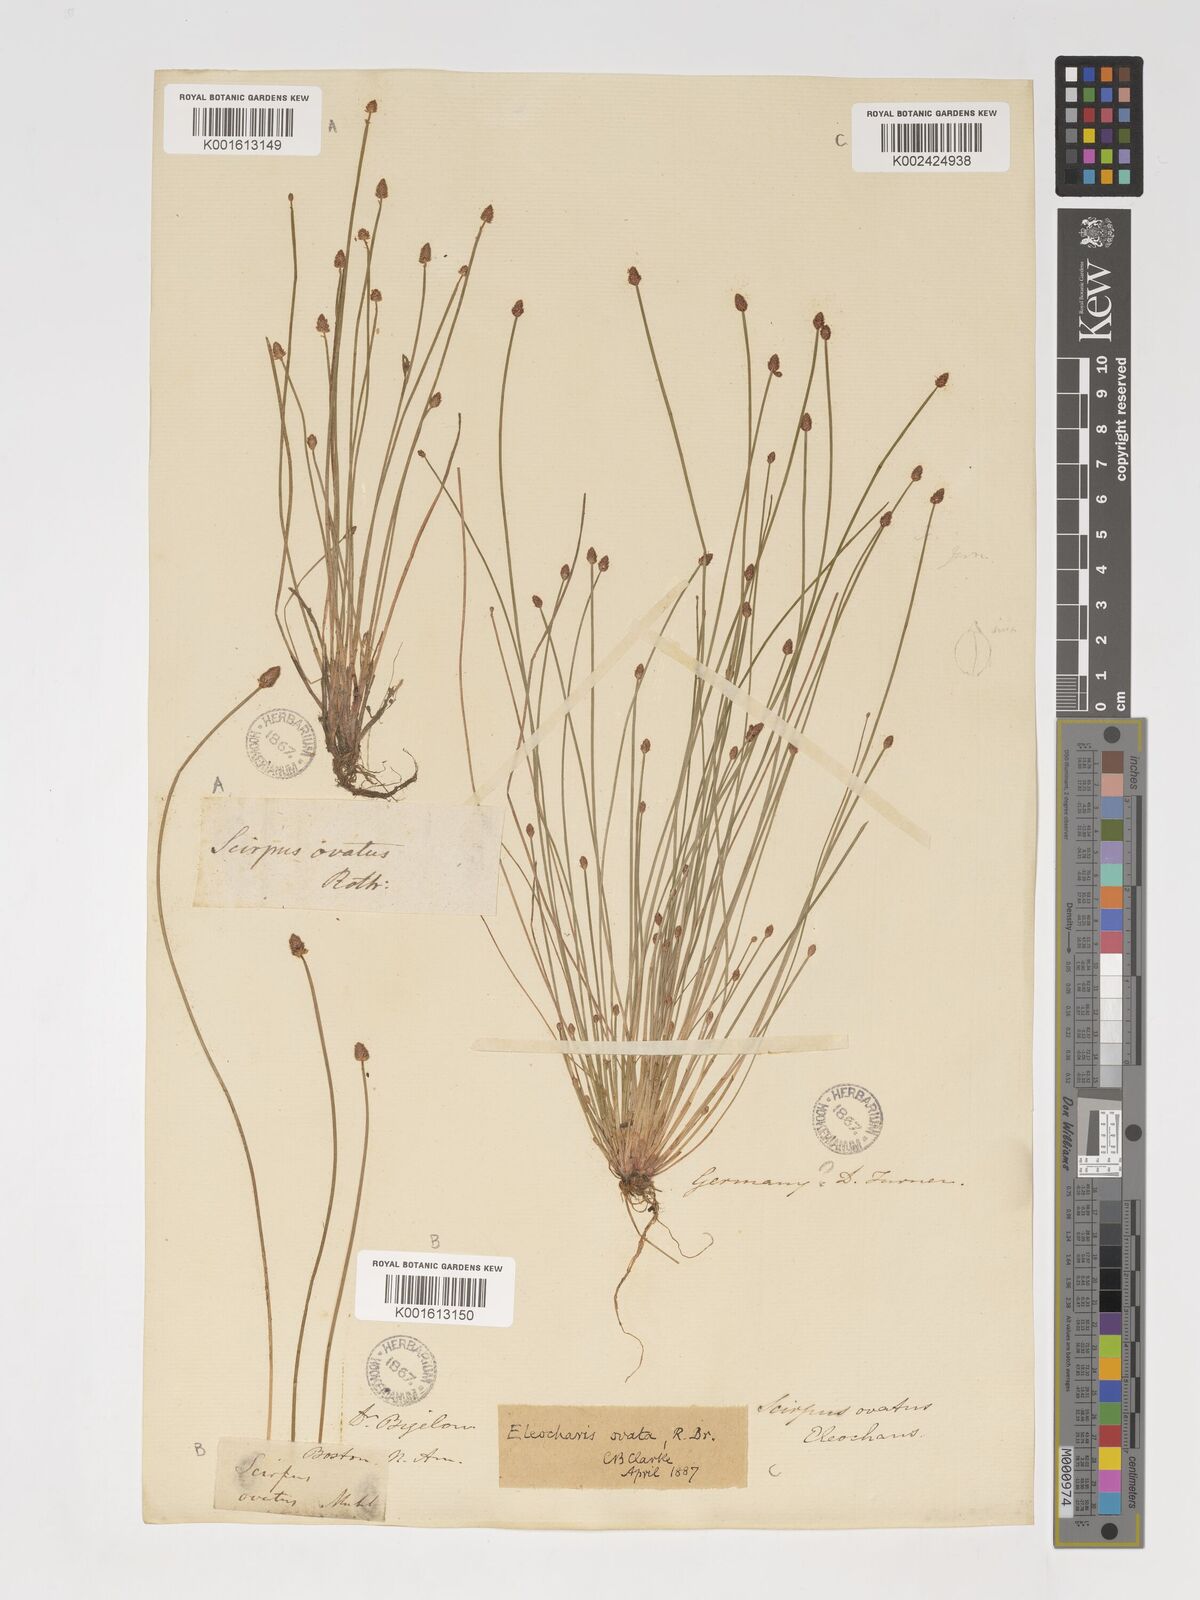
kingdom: Plantae
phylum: Tracheophyta
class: Liliopsida
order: Poales
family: Cyperaceae
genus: Eleocharis
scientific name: Eleocharis ovata
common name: Oval spike-rush
